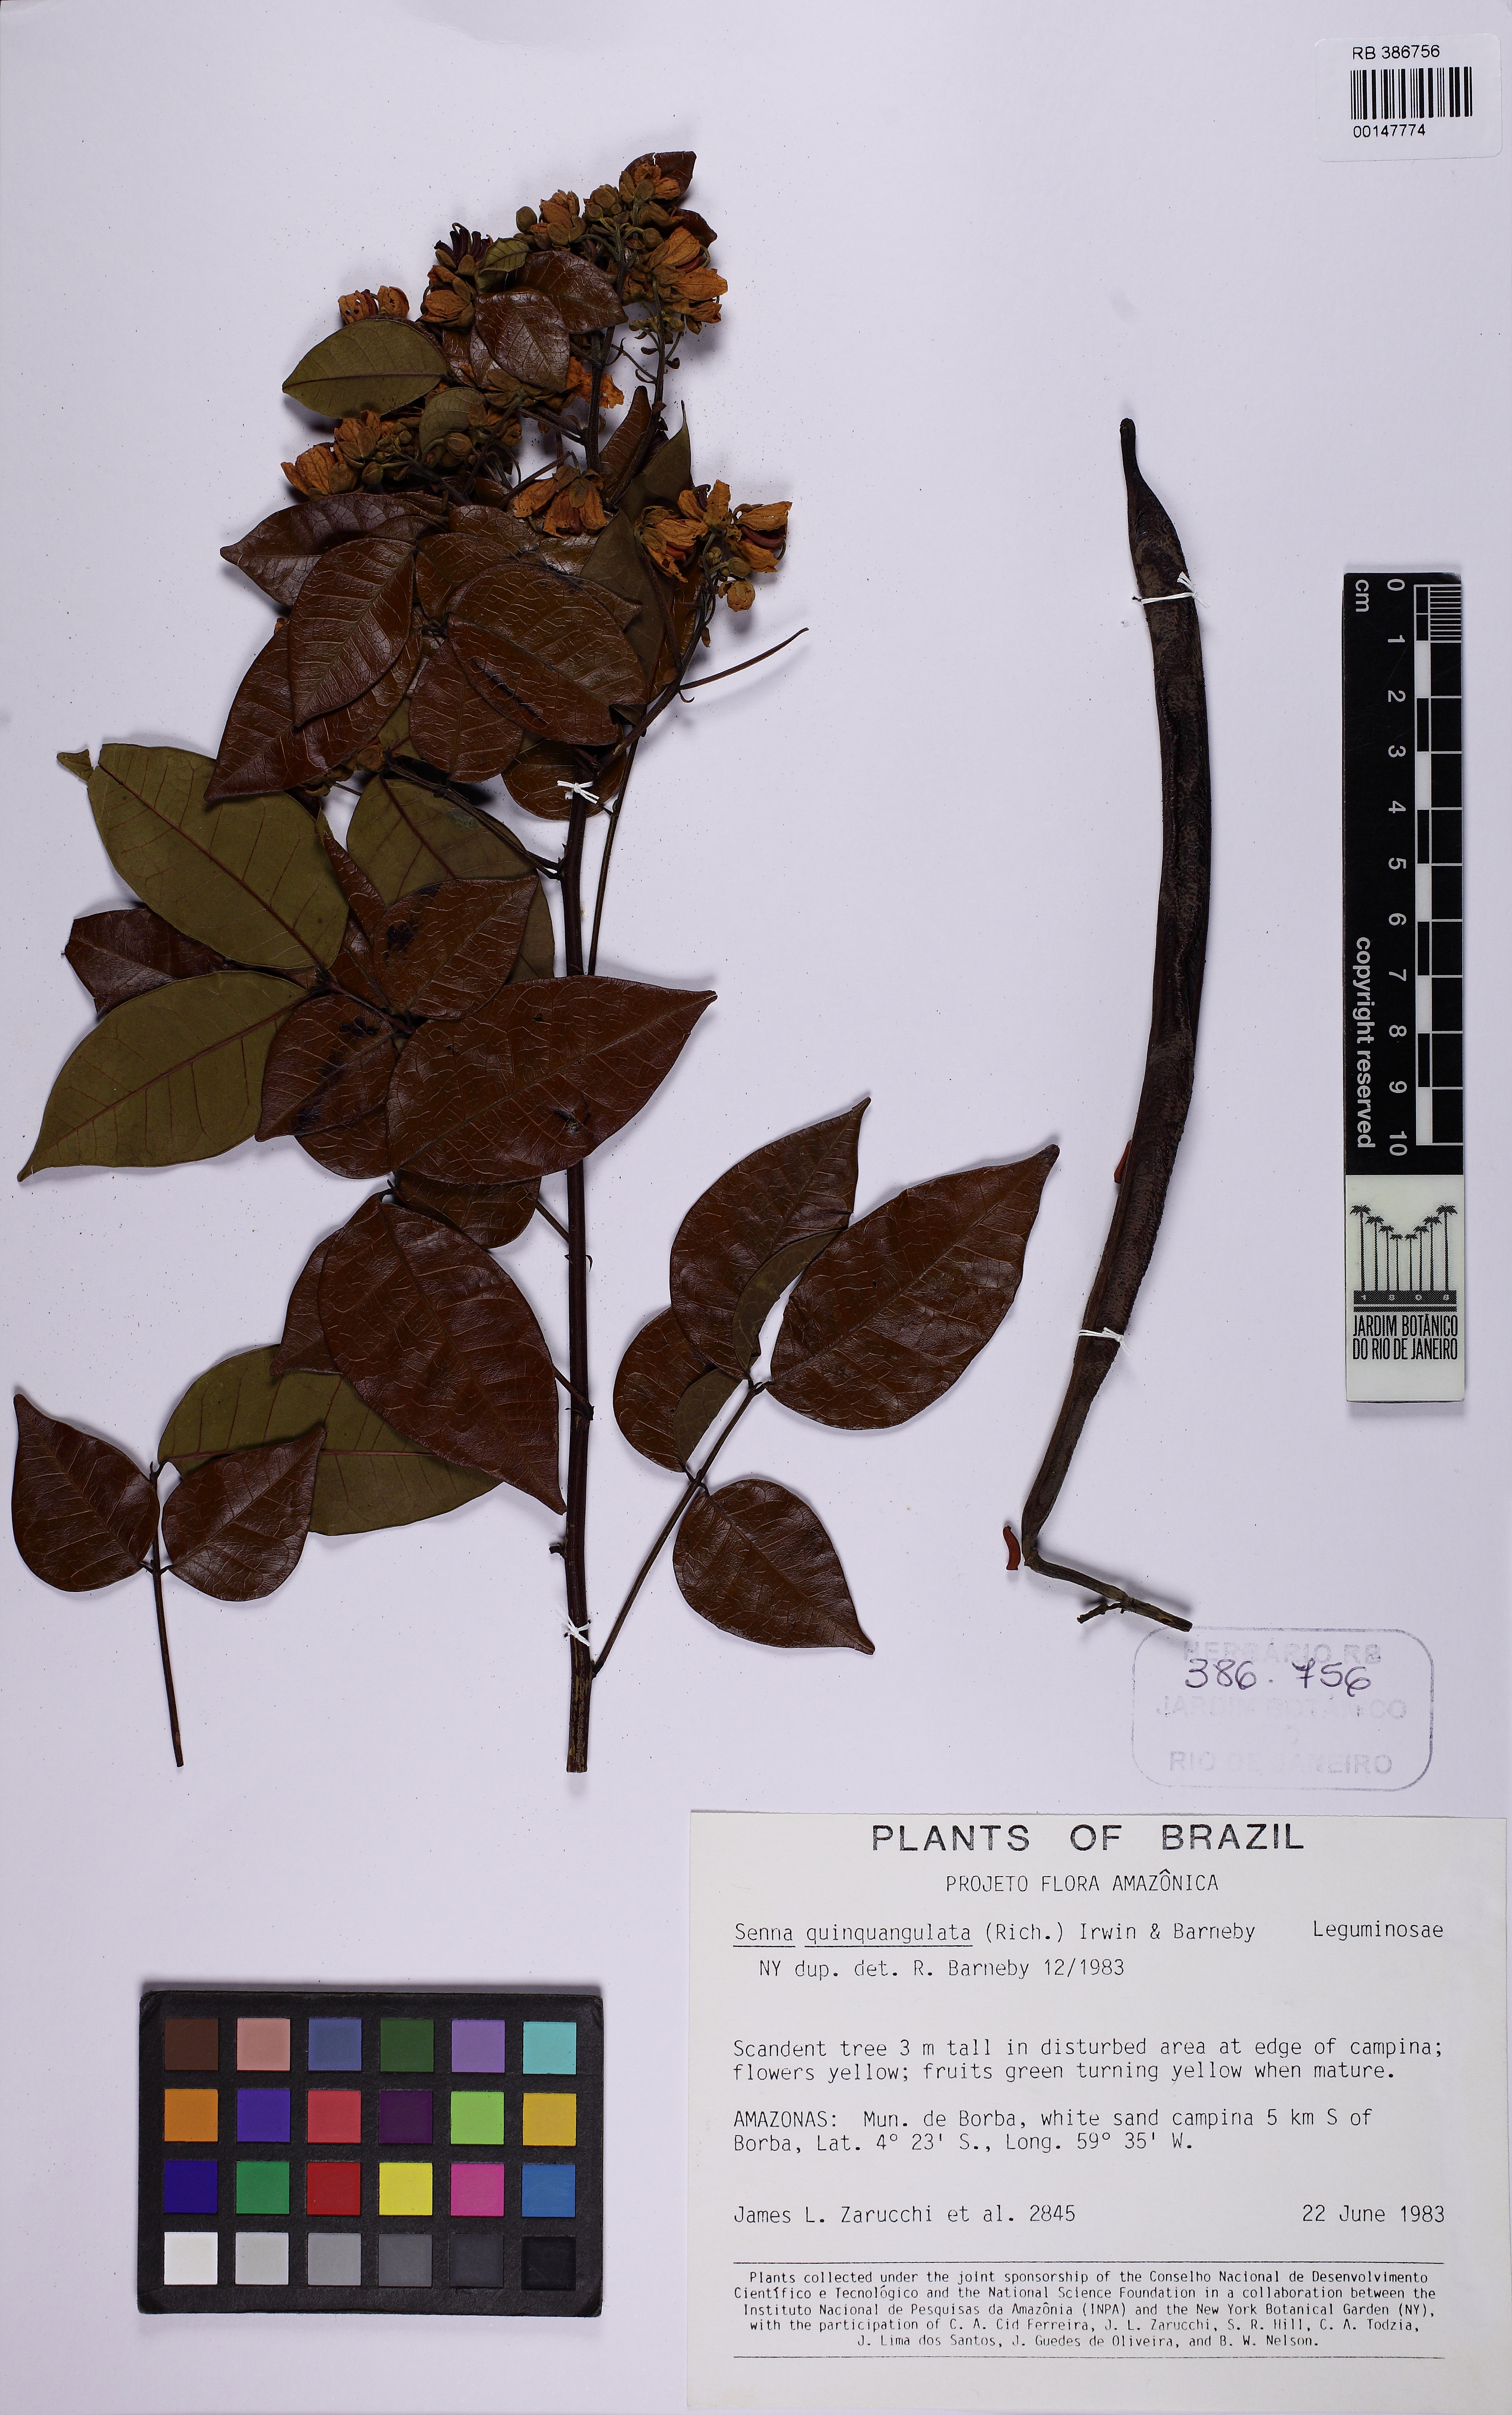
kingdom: Plantae
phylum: Tracheophyta
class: Magnoliopsida
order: Fabales
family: Fabaceae
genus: Senna
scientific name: Senna quinquangulata
